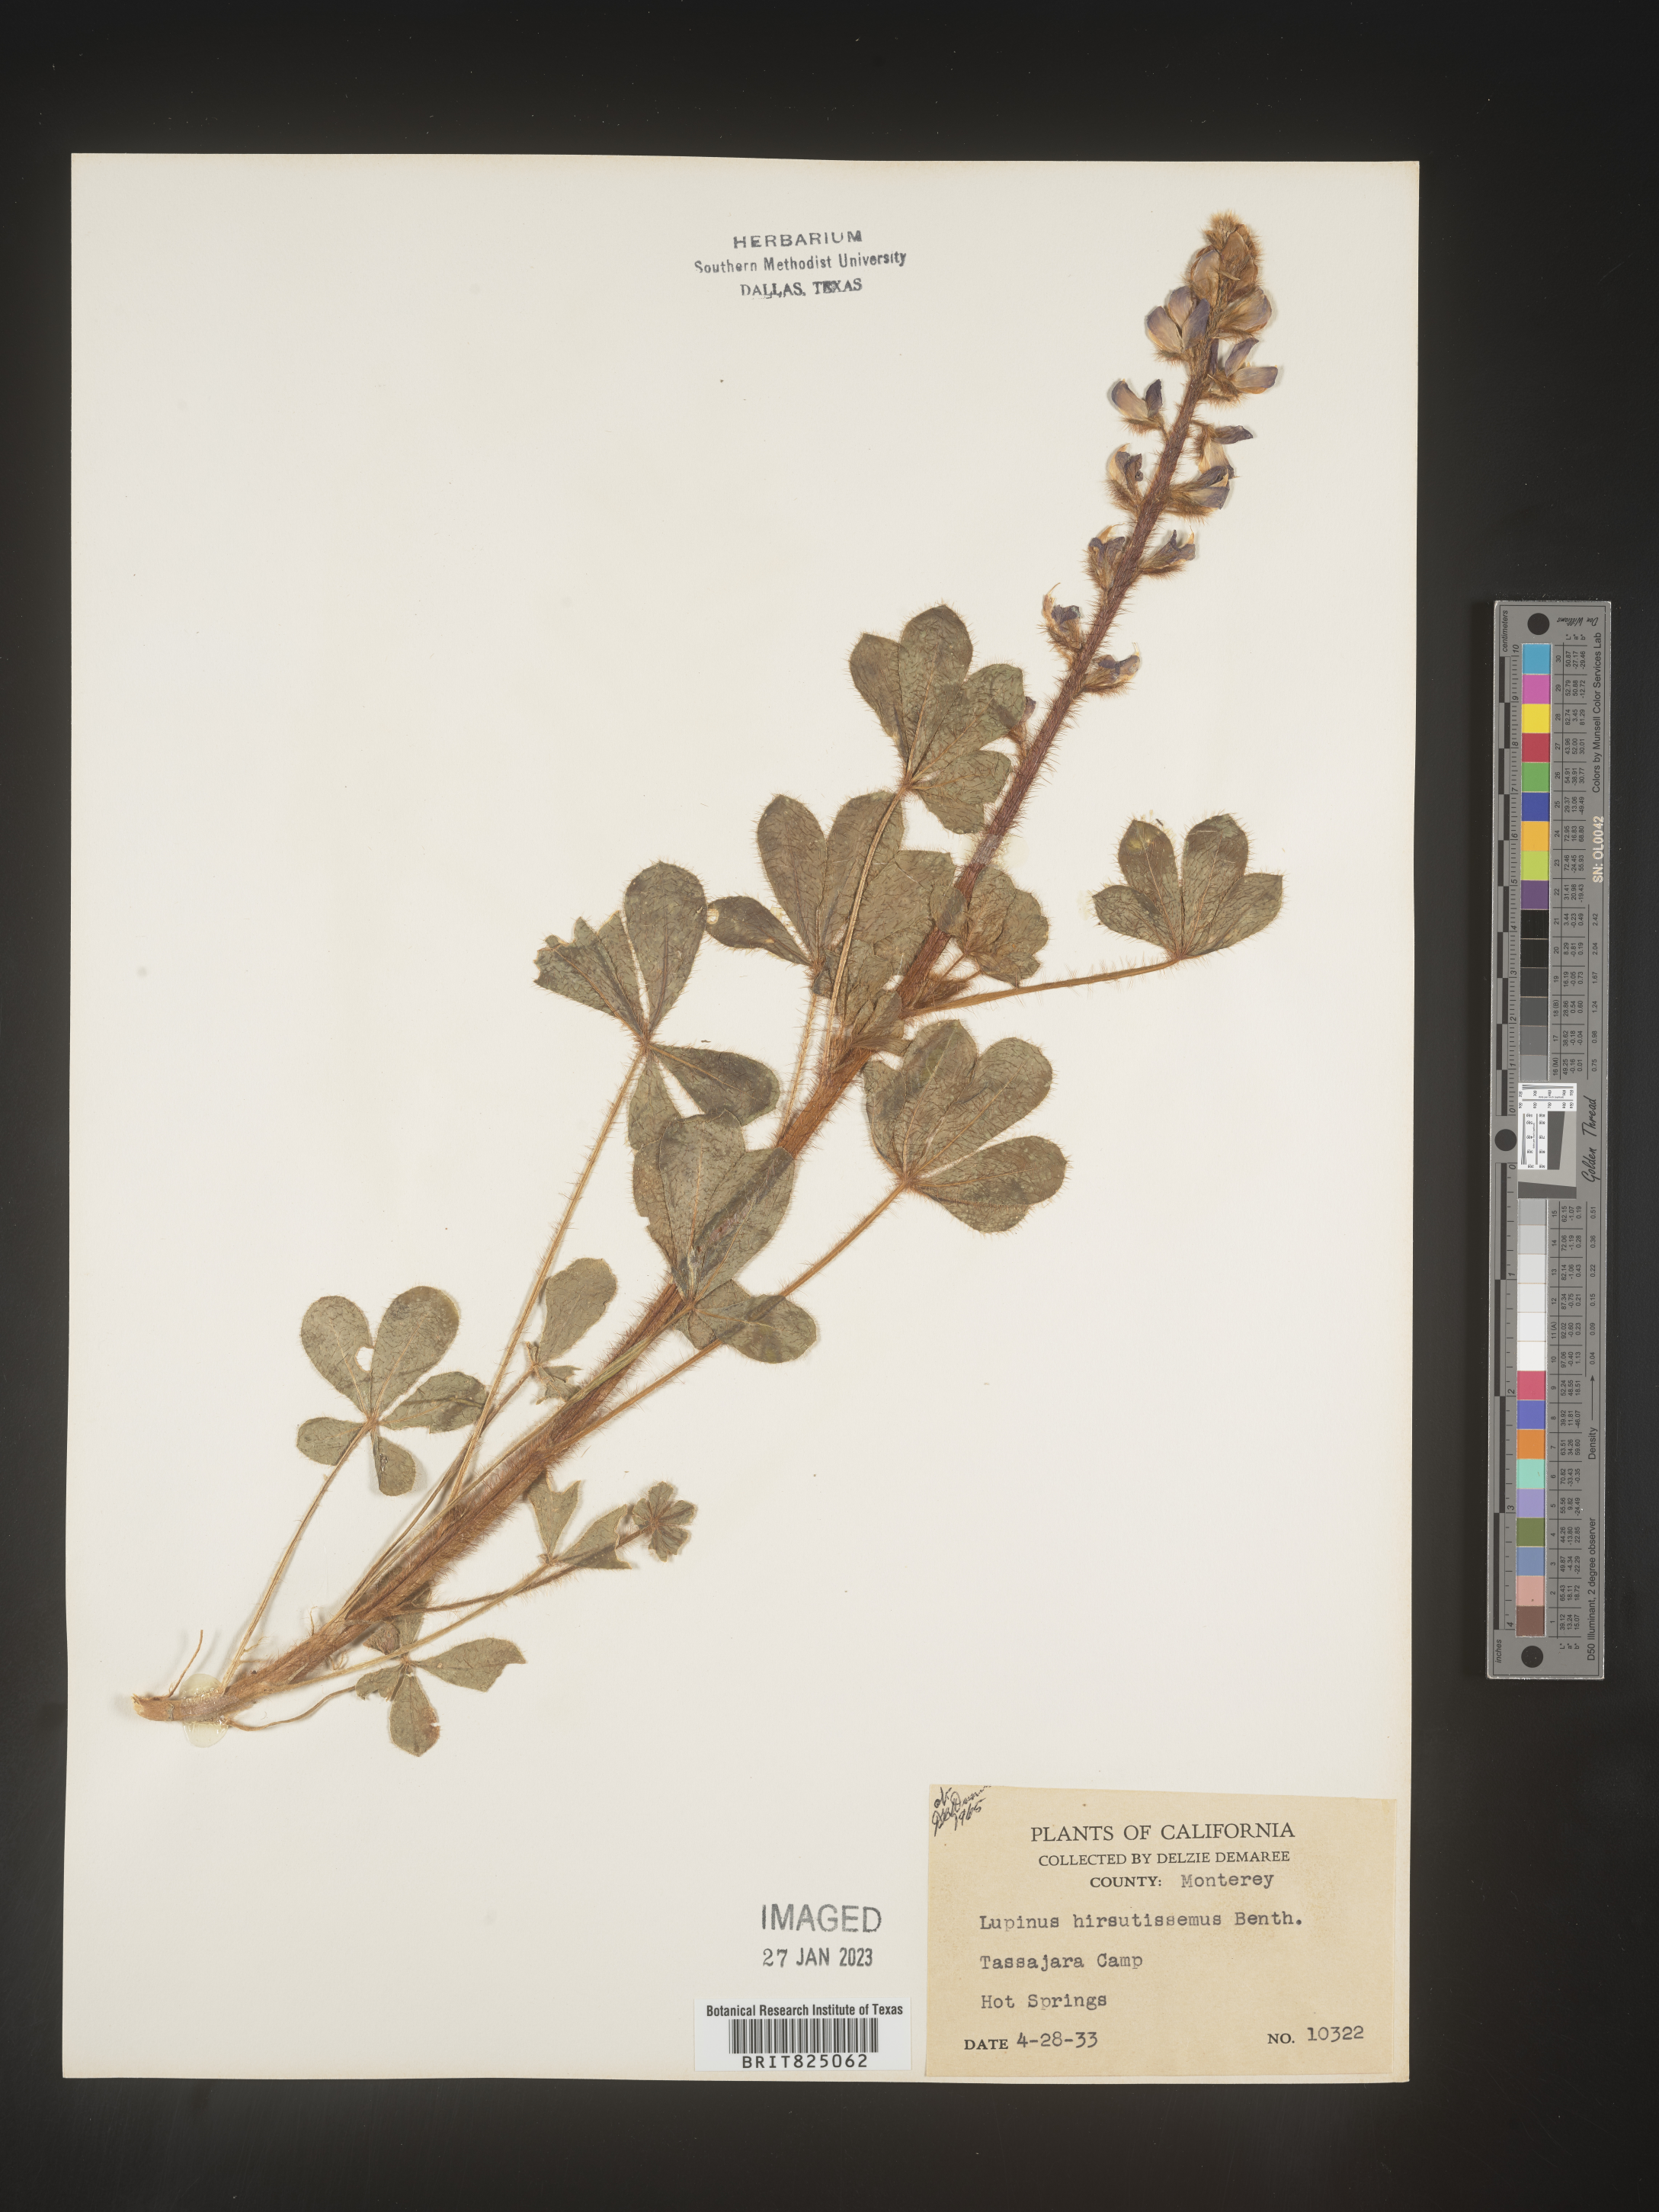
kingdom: Plantae
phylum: Tracheophyta
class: Magnoliopsida
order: Fabales
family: Fabaceae
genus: Lupinus
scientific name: Lupinus
